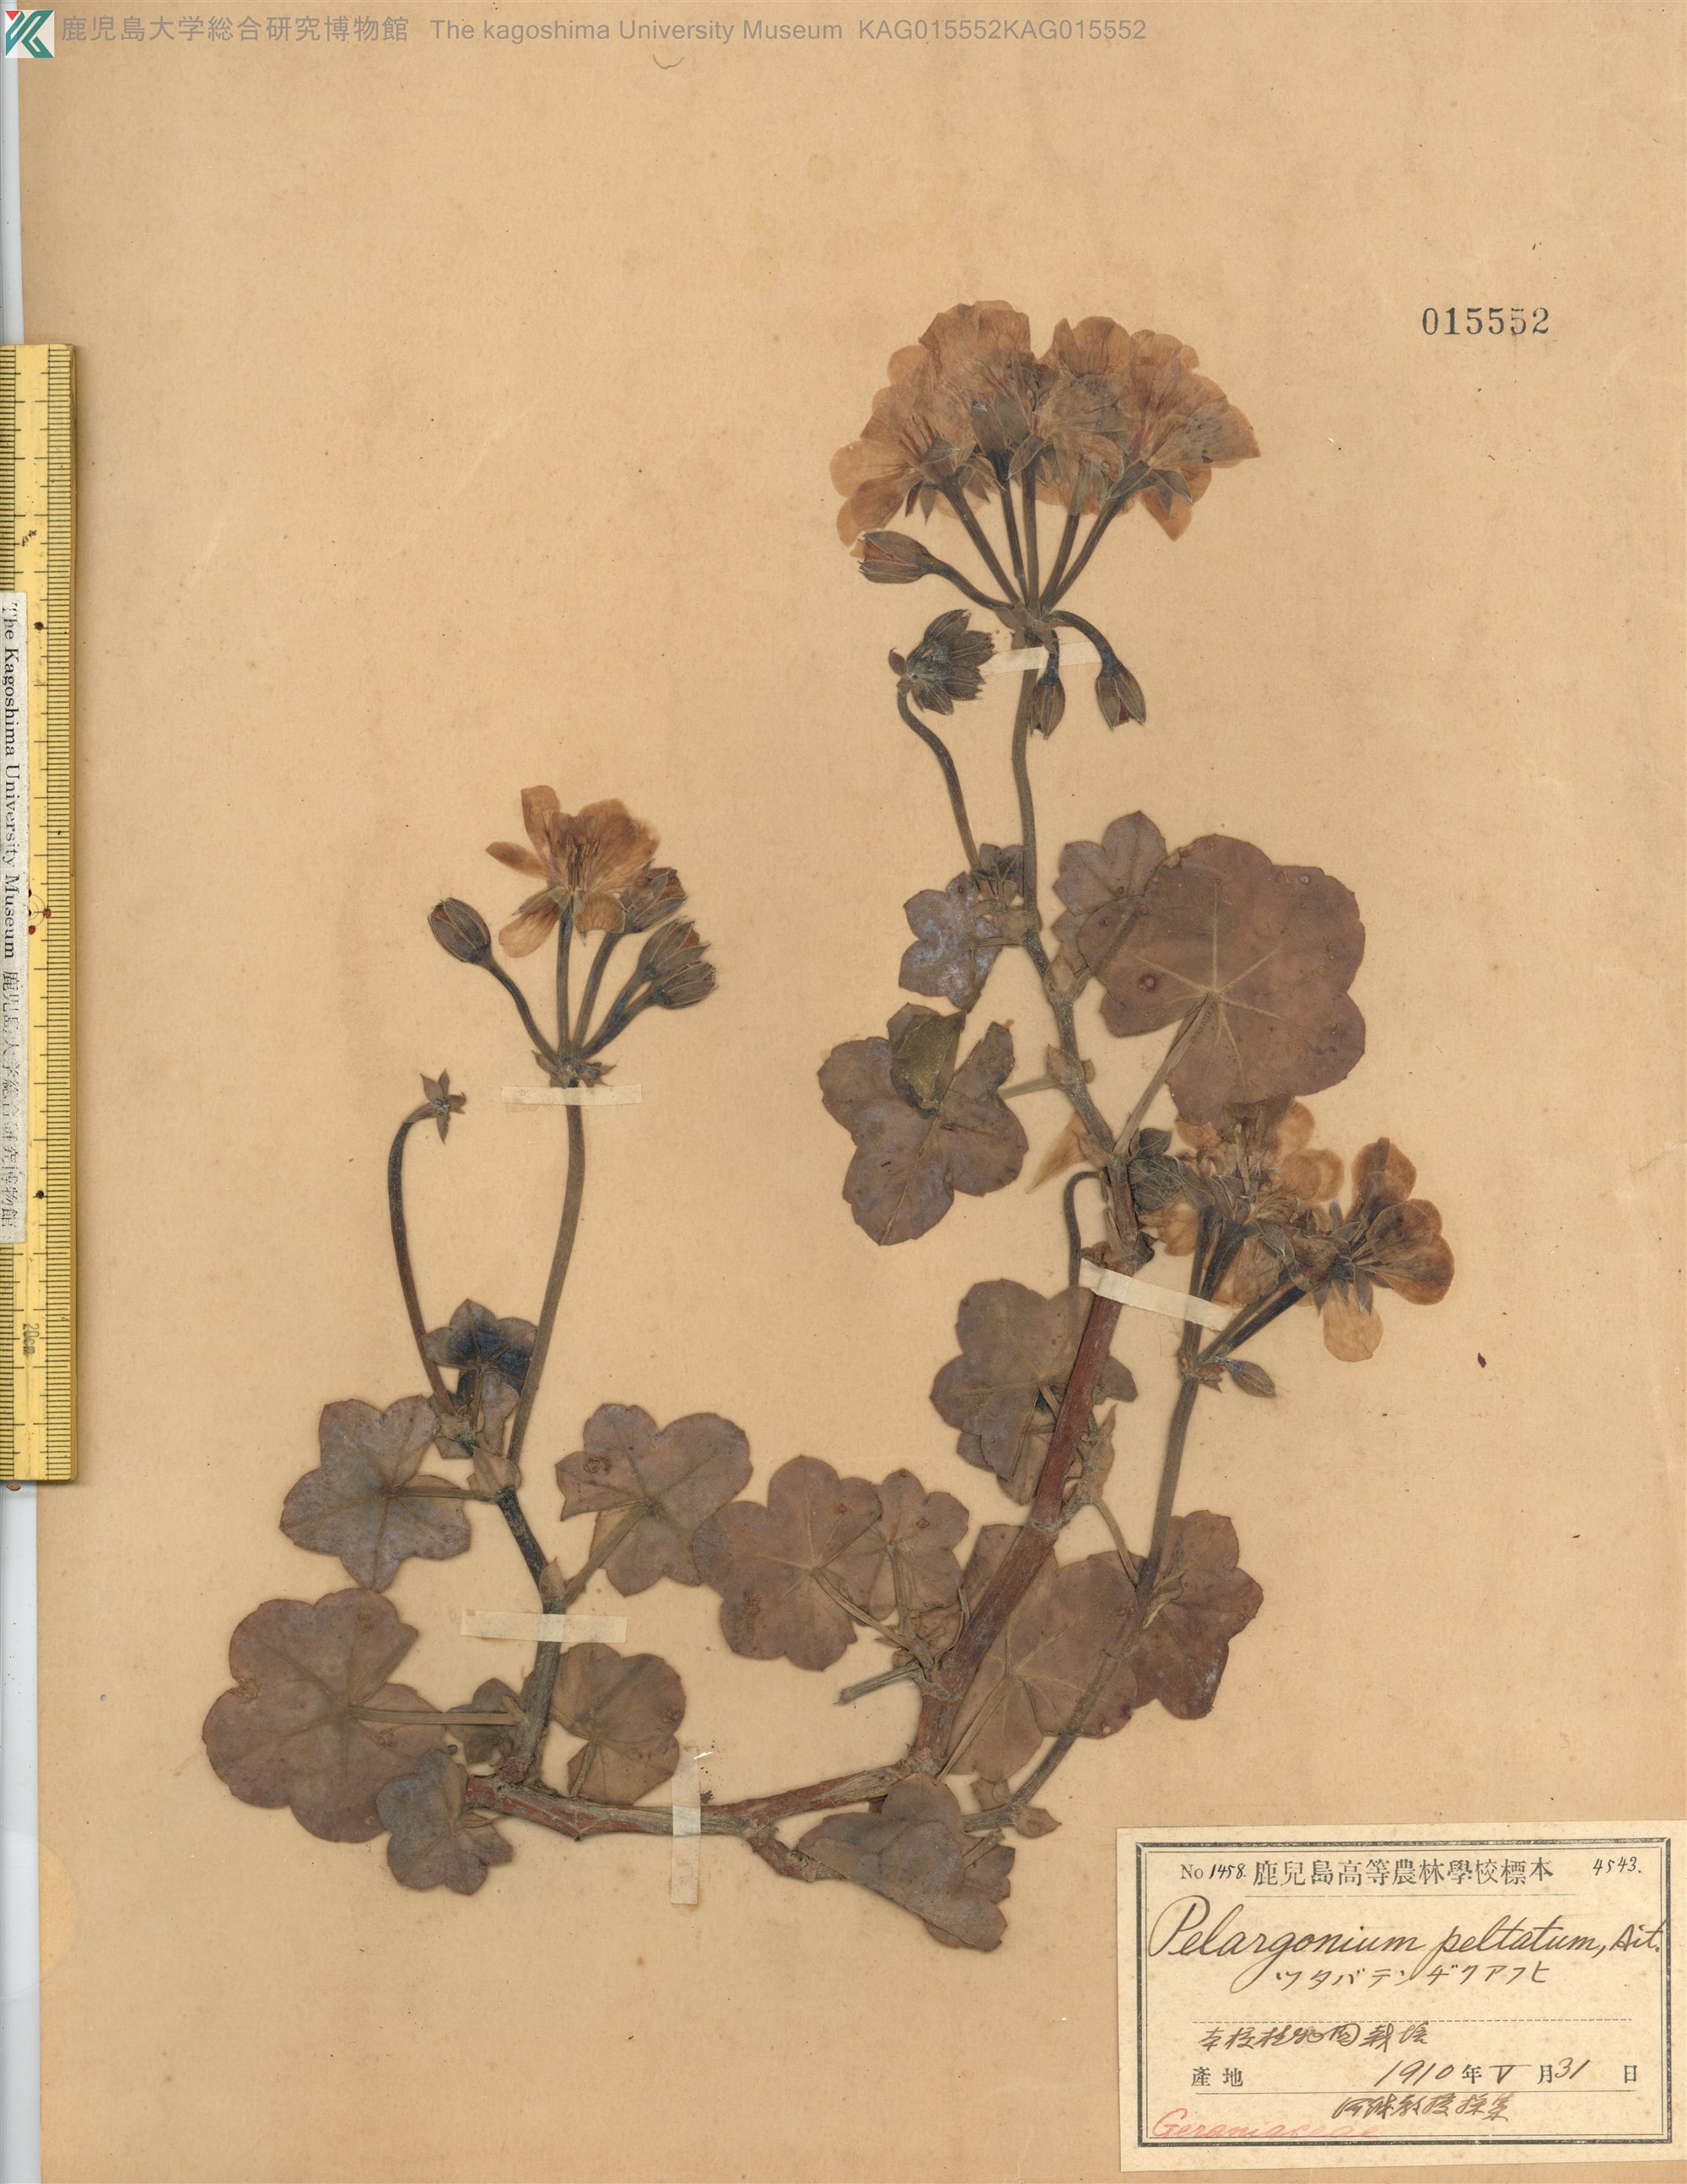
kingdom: Plantae
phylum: Tracheophyta
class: Magnoliopsida
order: Geraniales
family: Geraniaceae
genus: Pelargonium
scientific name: Pelargonium peltatum
